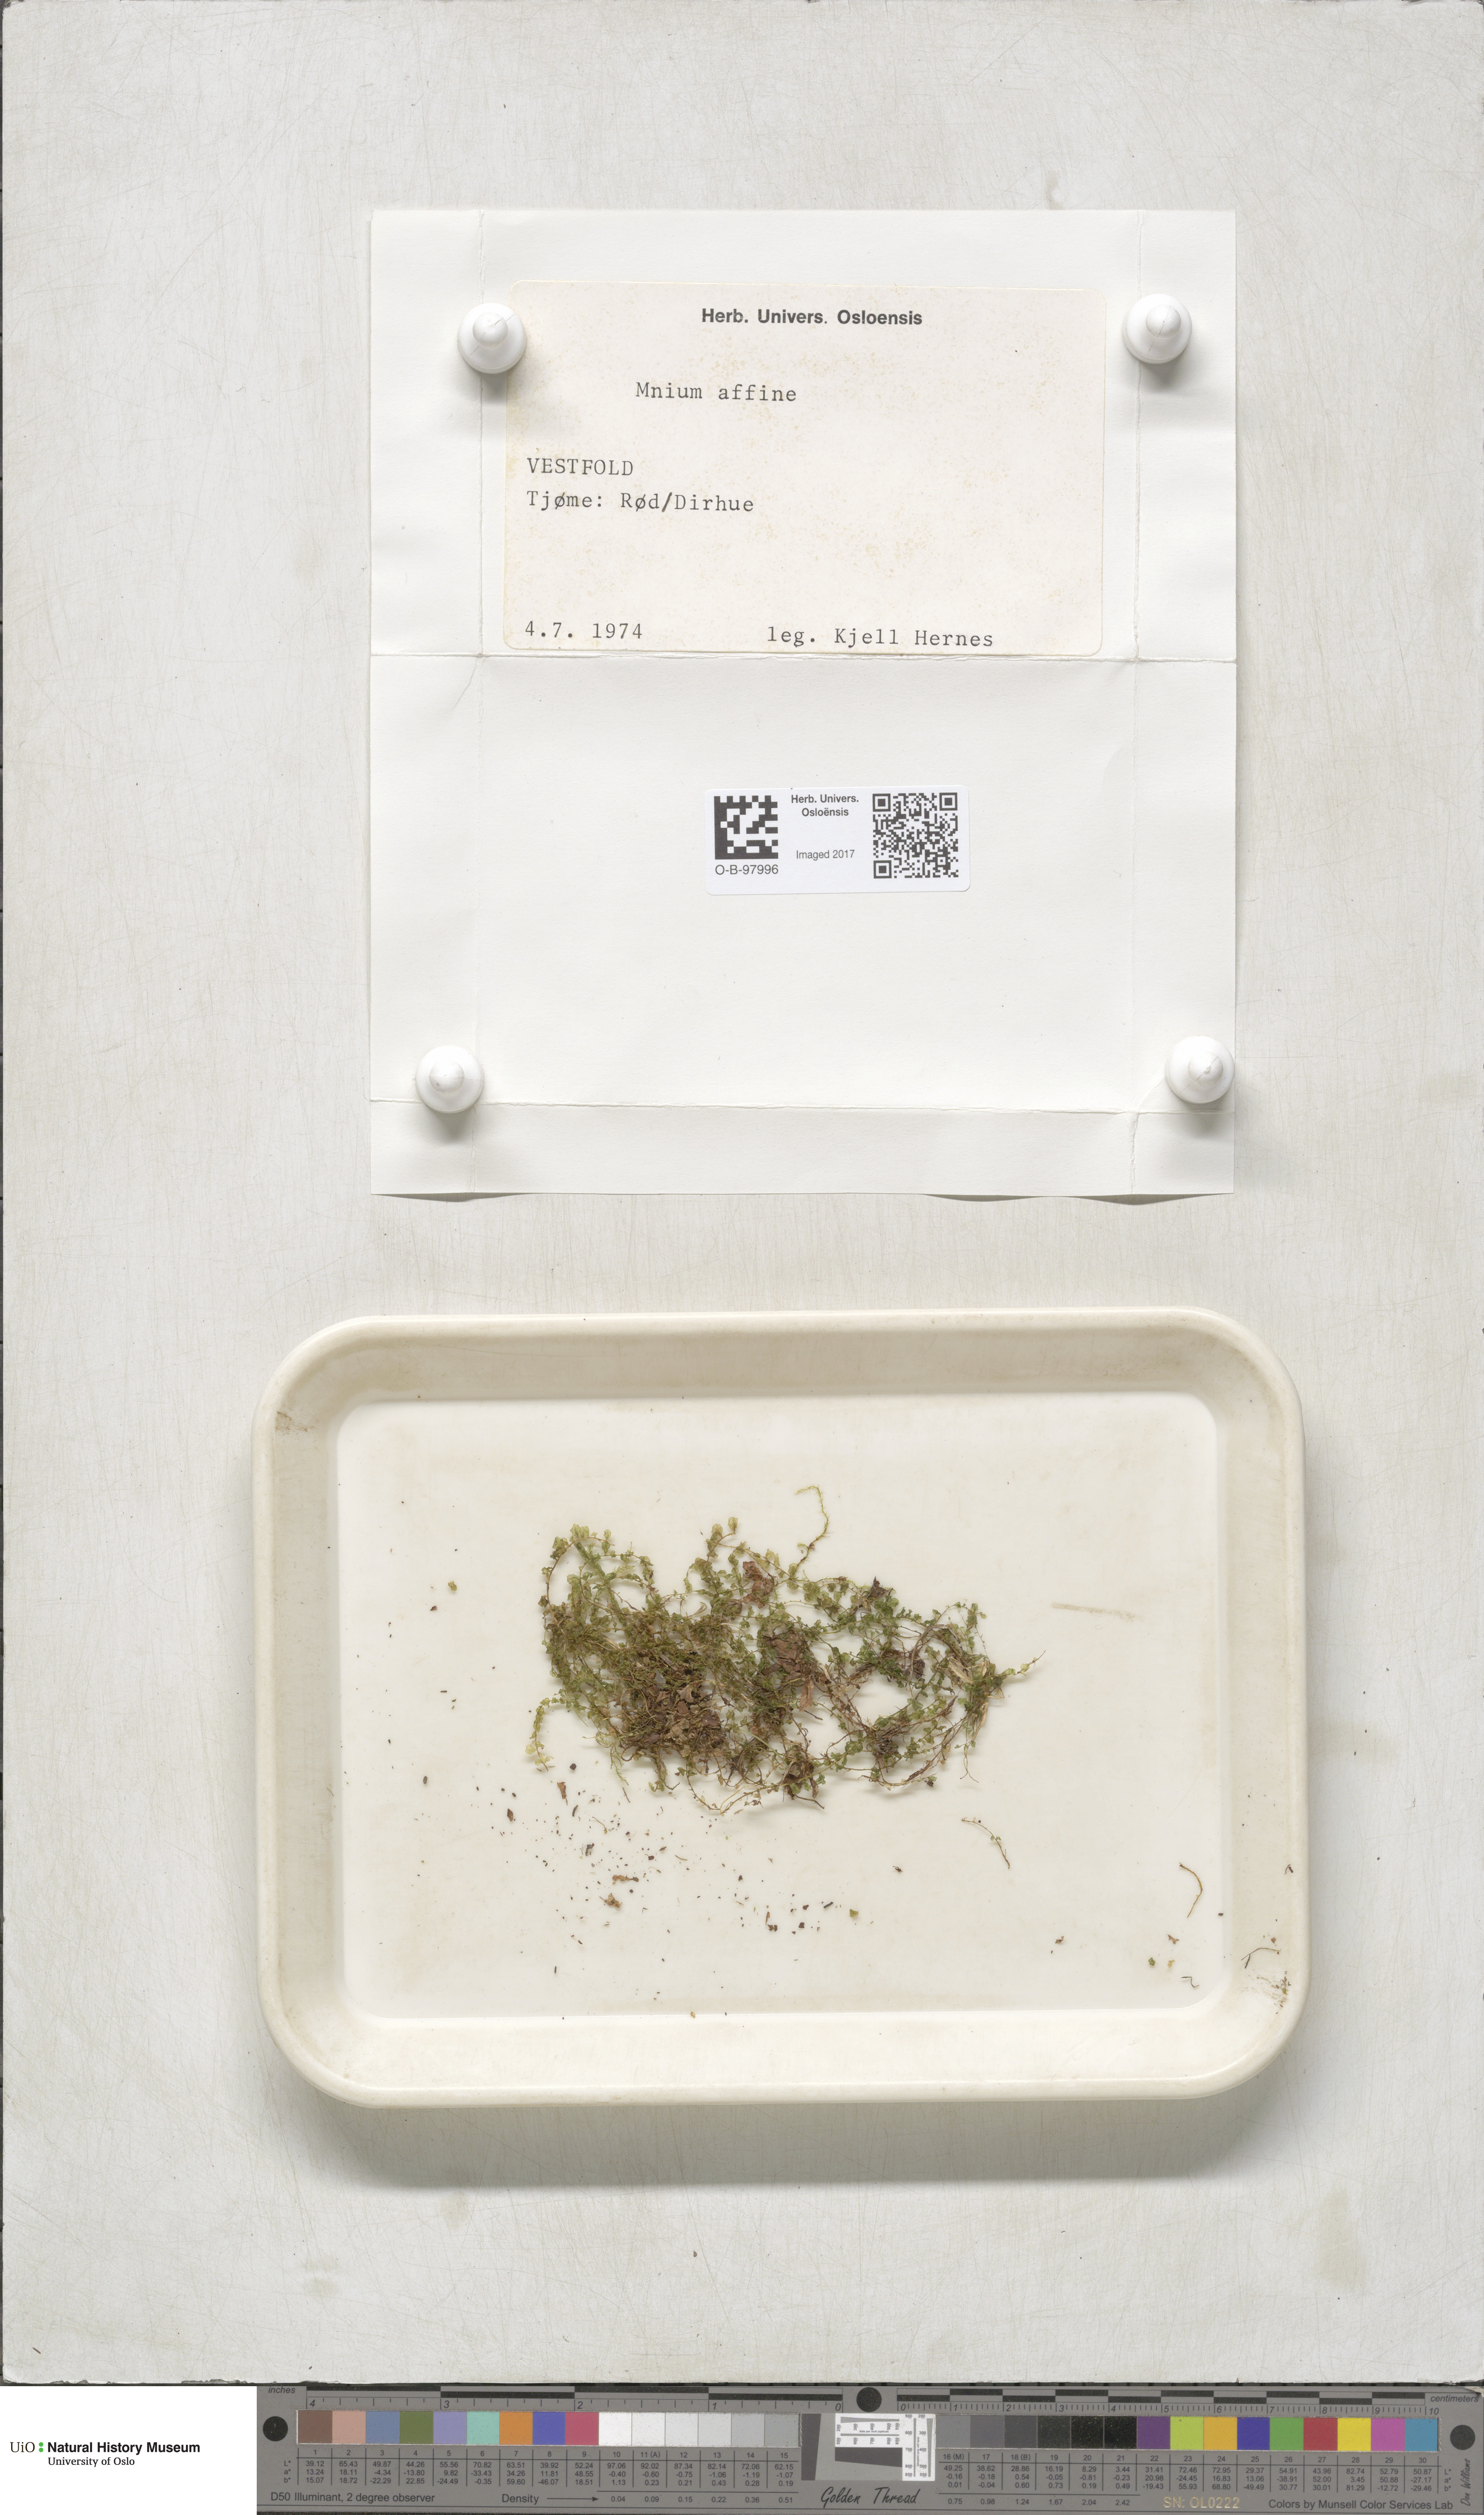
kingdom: Plantae
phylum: Bryophyta
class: Bryopsida
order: Bryales
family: Mniaceae
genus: Plagiomnium
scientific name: Plagiomnium affine
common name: Many-fruited thyme-moss
